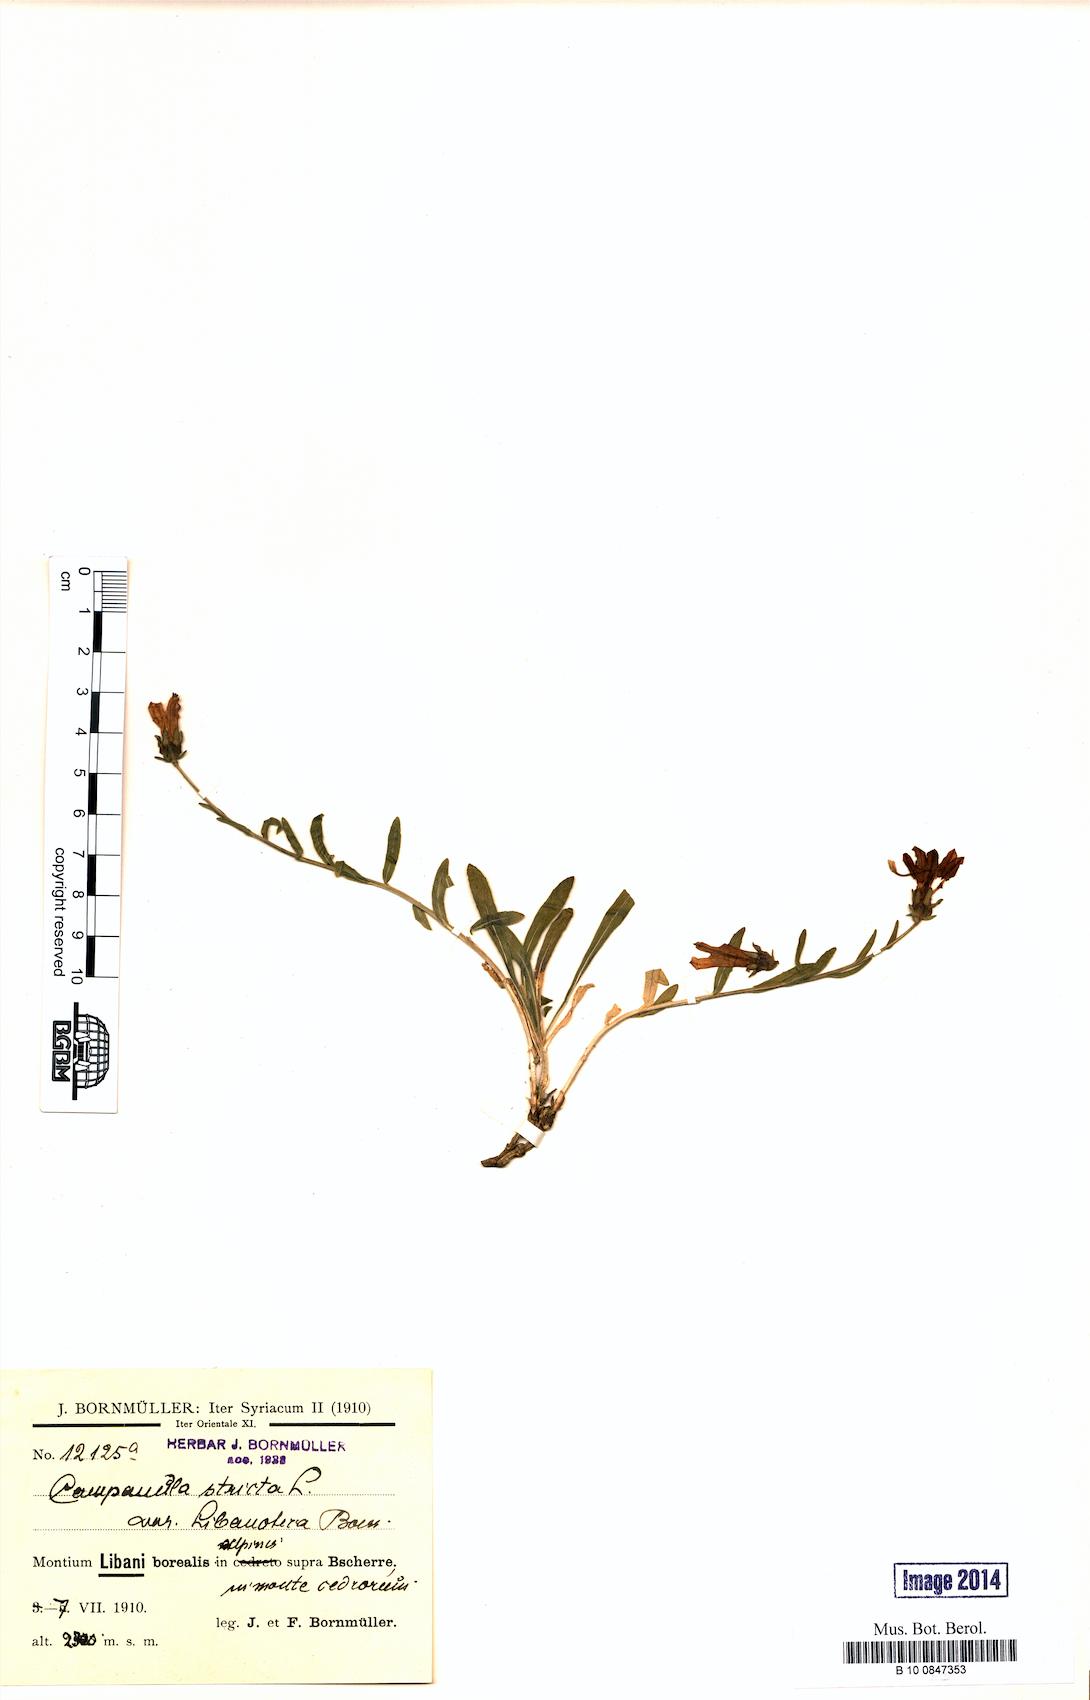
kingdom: Plantae
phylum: Tracheophyta
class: Magnoliopsida
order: Asterales
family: Campanulaceae
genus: Campanula
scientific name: Campanula stricta
